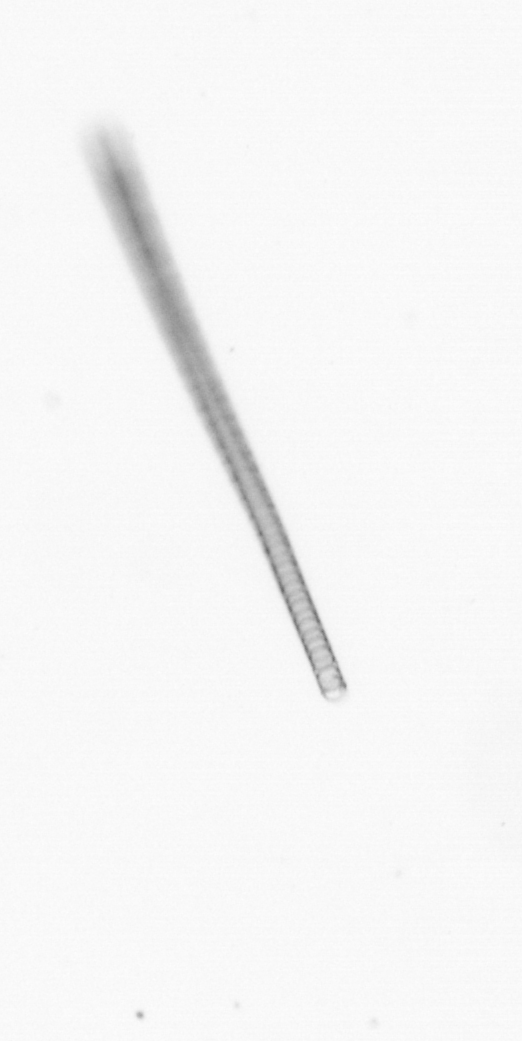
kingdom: Chromista
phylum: Ochrophyta
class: Bacillariophyceae
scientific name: Bacillariophyceae
